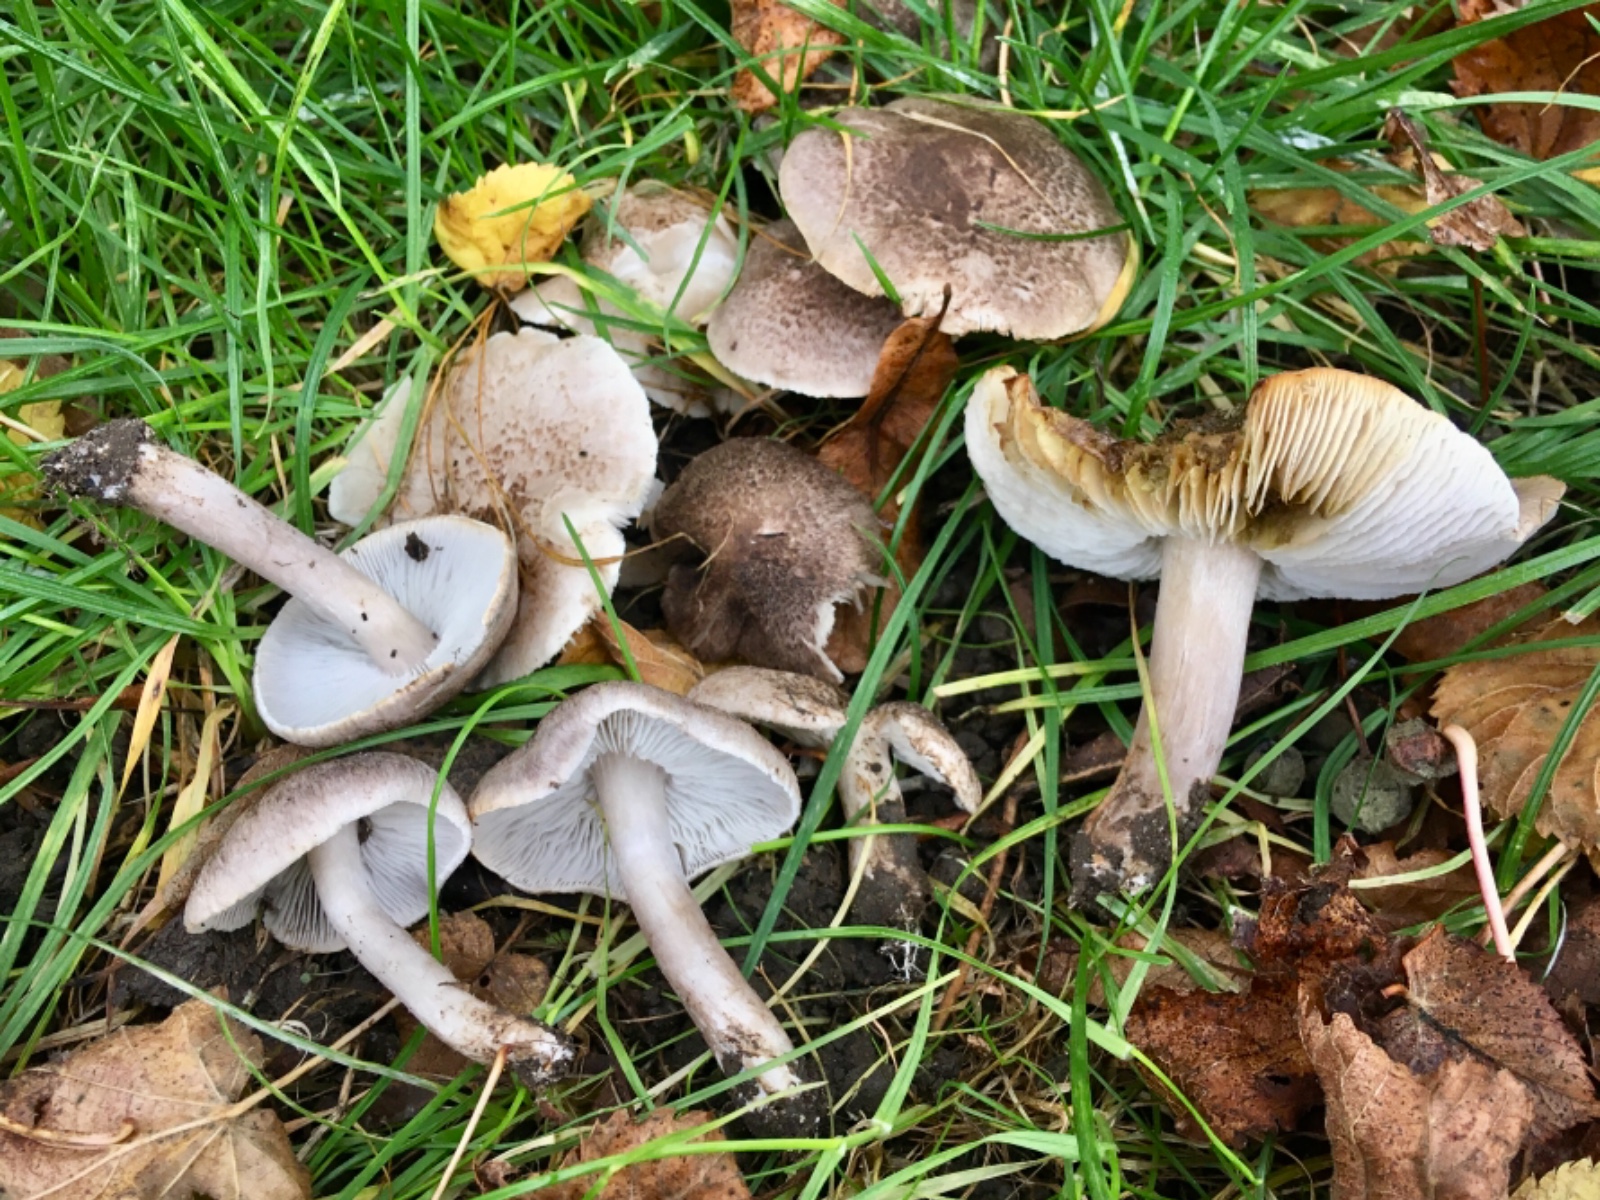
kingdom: Fungi
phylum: Basidiomycota
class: Agaricomycetes
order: Agaricales
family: Tricholomataceae
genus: Tricholoma
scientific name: Tricholoma scalpturatum
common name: gulplettet ridderhat
